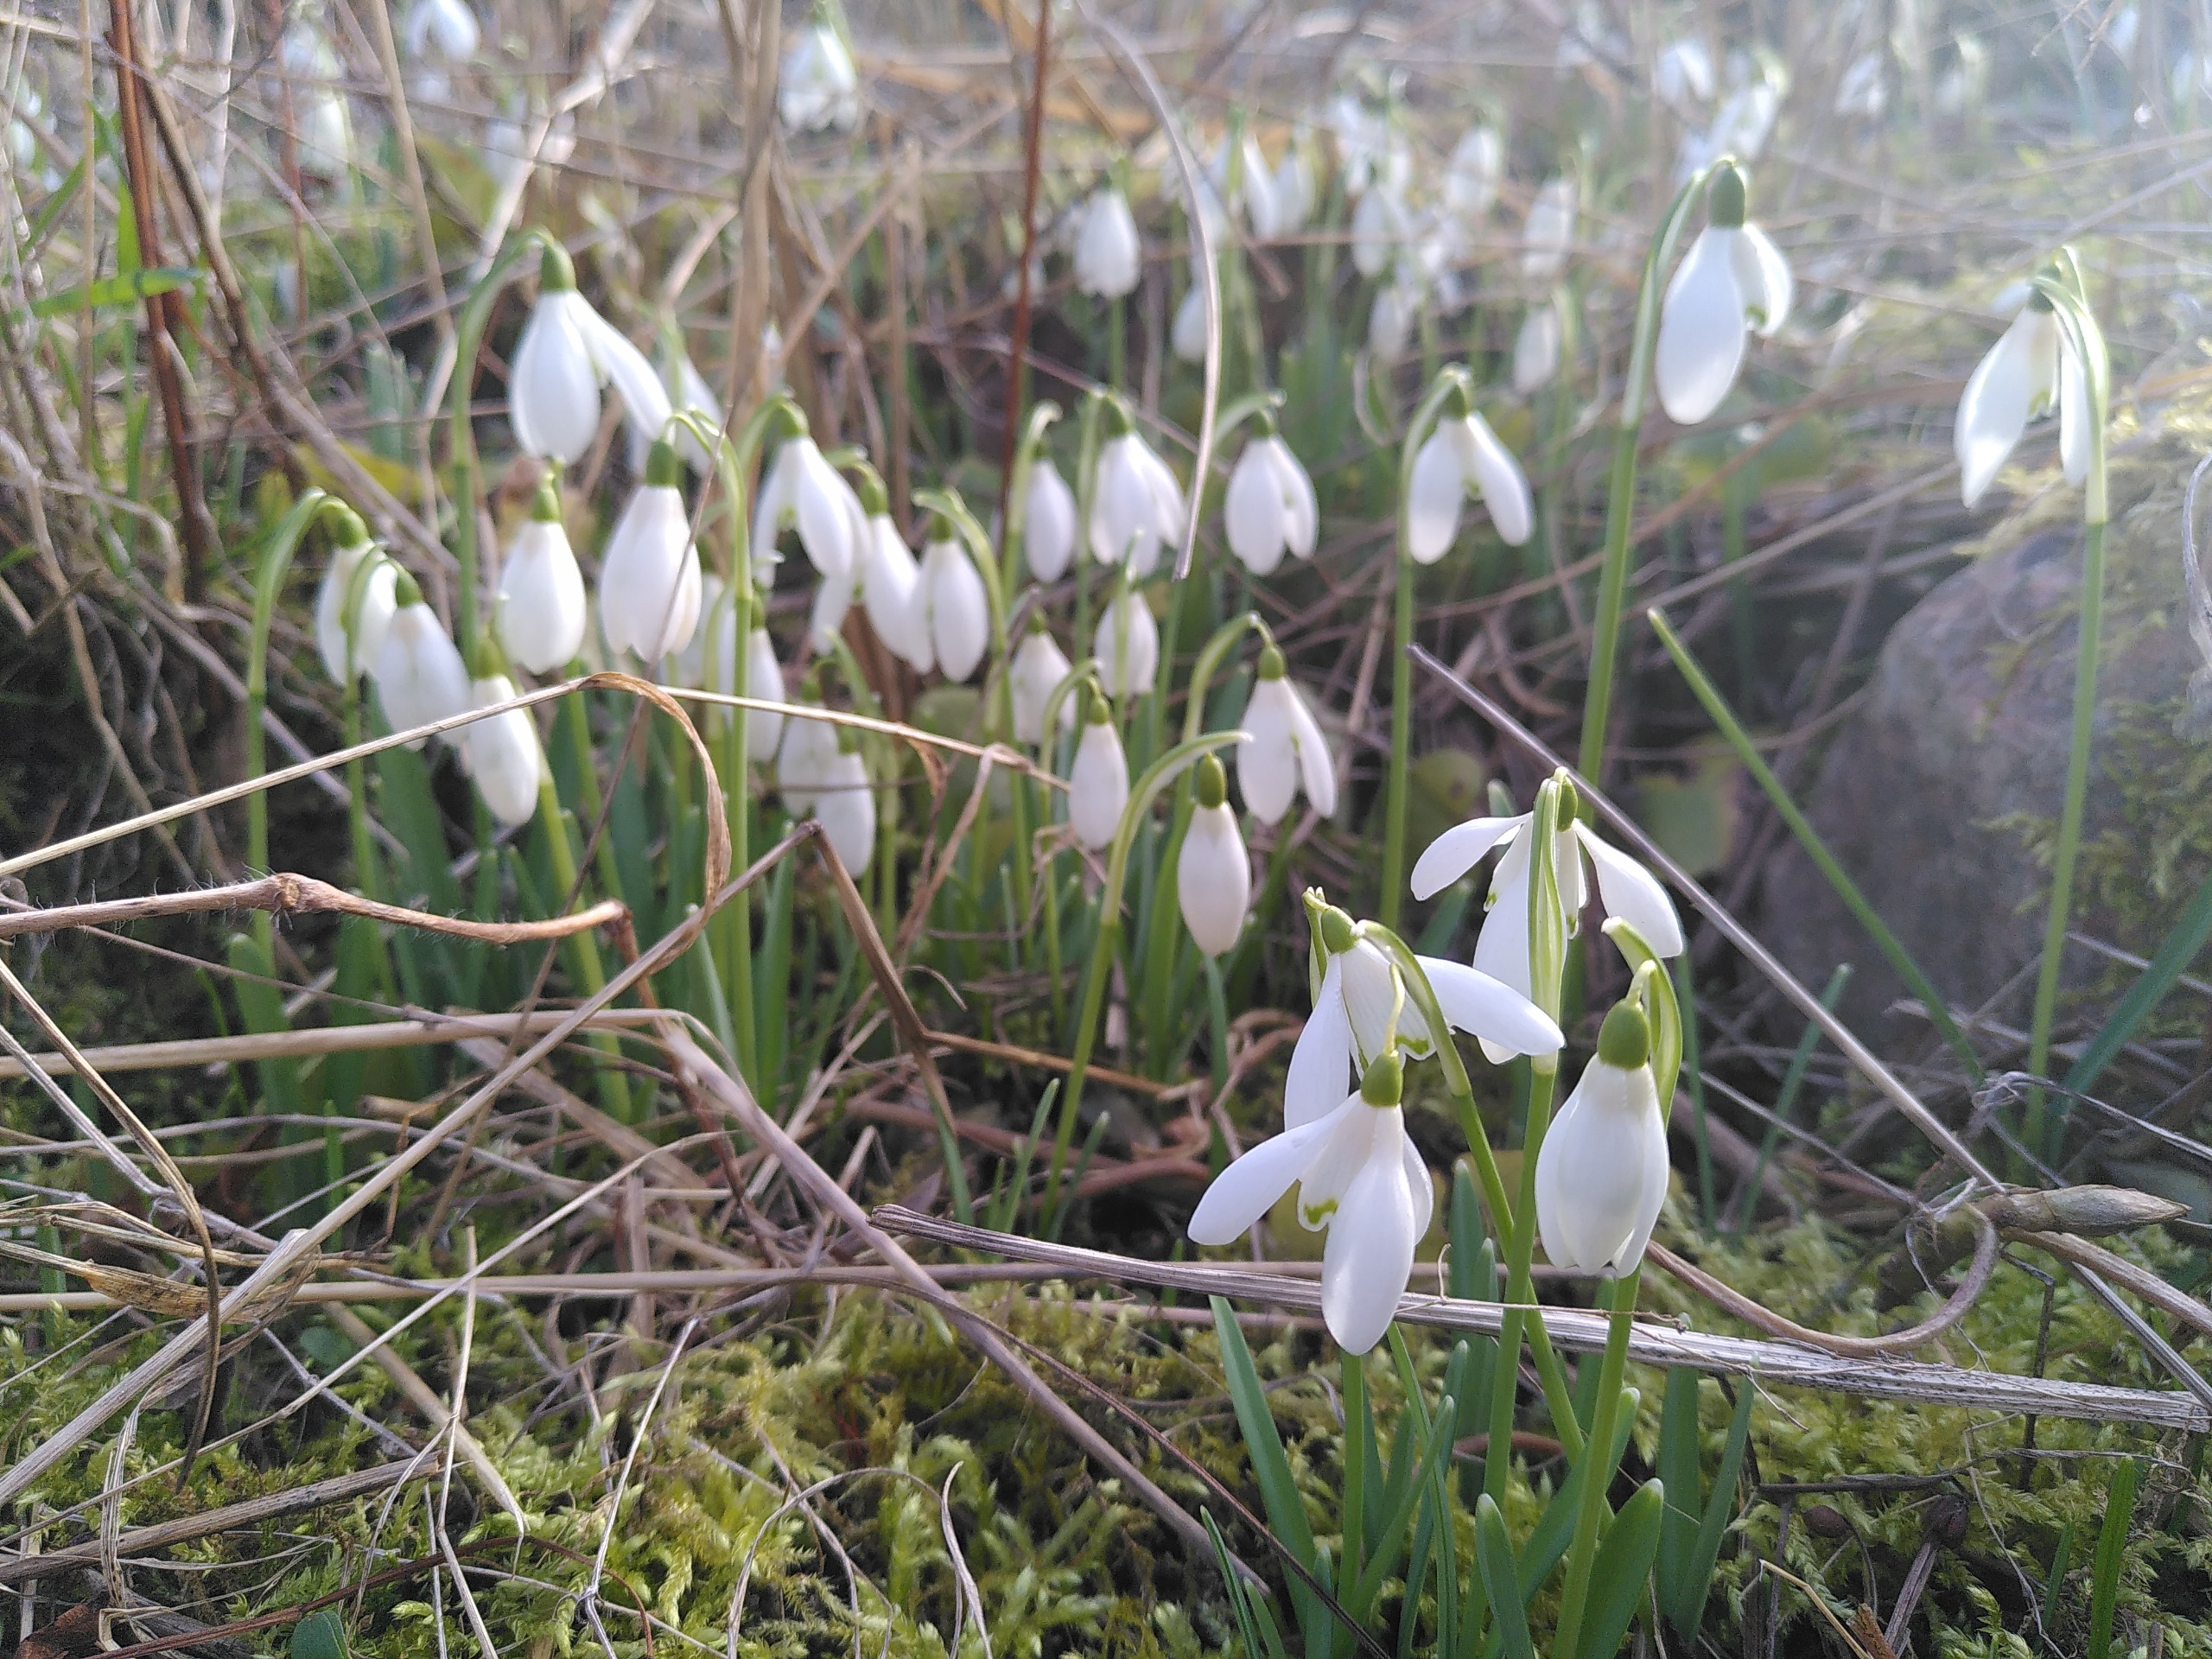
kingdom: Plantae
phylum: Tracheophyta
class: Liliopsida
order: Asparagales
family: Amaryllidaceae
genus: Galanthus
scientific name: Galanthus nivalis
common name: Vintergæk
